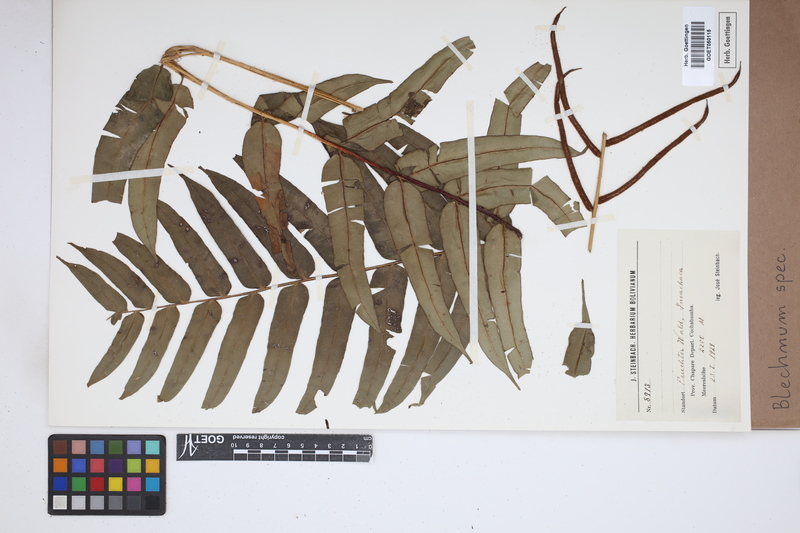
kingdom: Plantae
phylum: Tracheophyta
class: Polypodiopsida
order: Polypodiales
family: Blechnaceae
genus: Blechnum
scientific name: Blechnum
